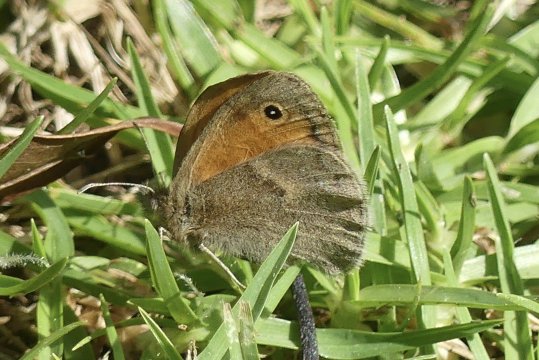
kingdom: Animalia
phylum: Arthropoda
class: Insecta
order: Lepidoptera
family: Nymphalidae
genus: Coenonympha
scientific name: Coenonympha pamphilus
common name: Small Heath
